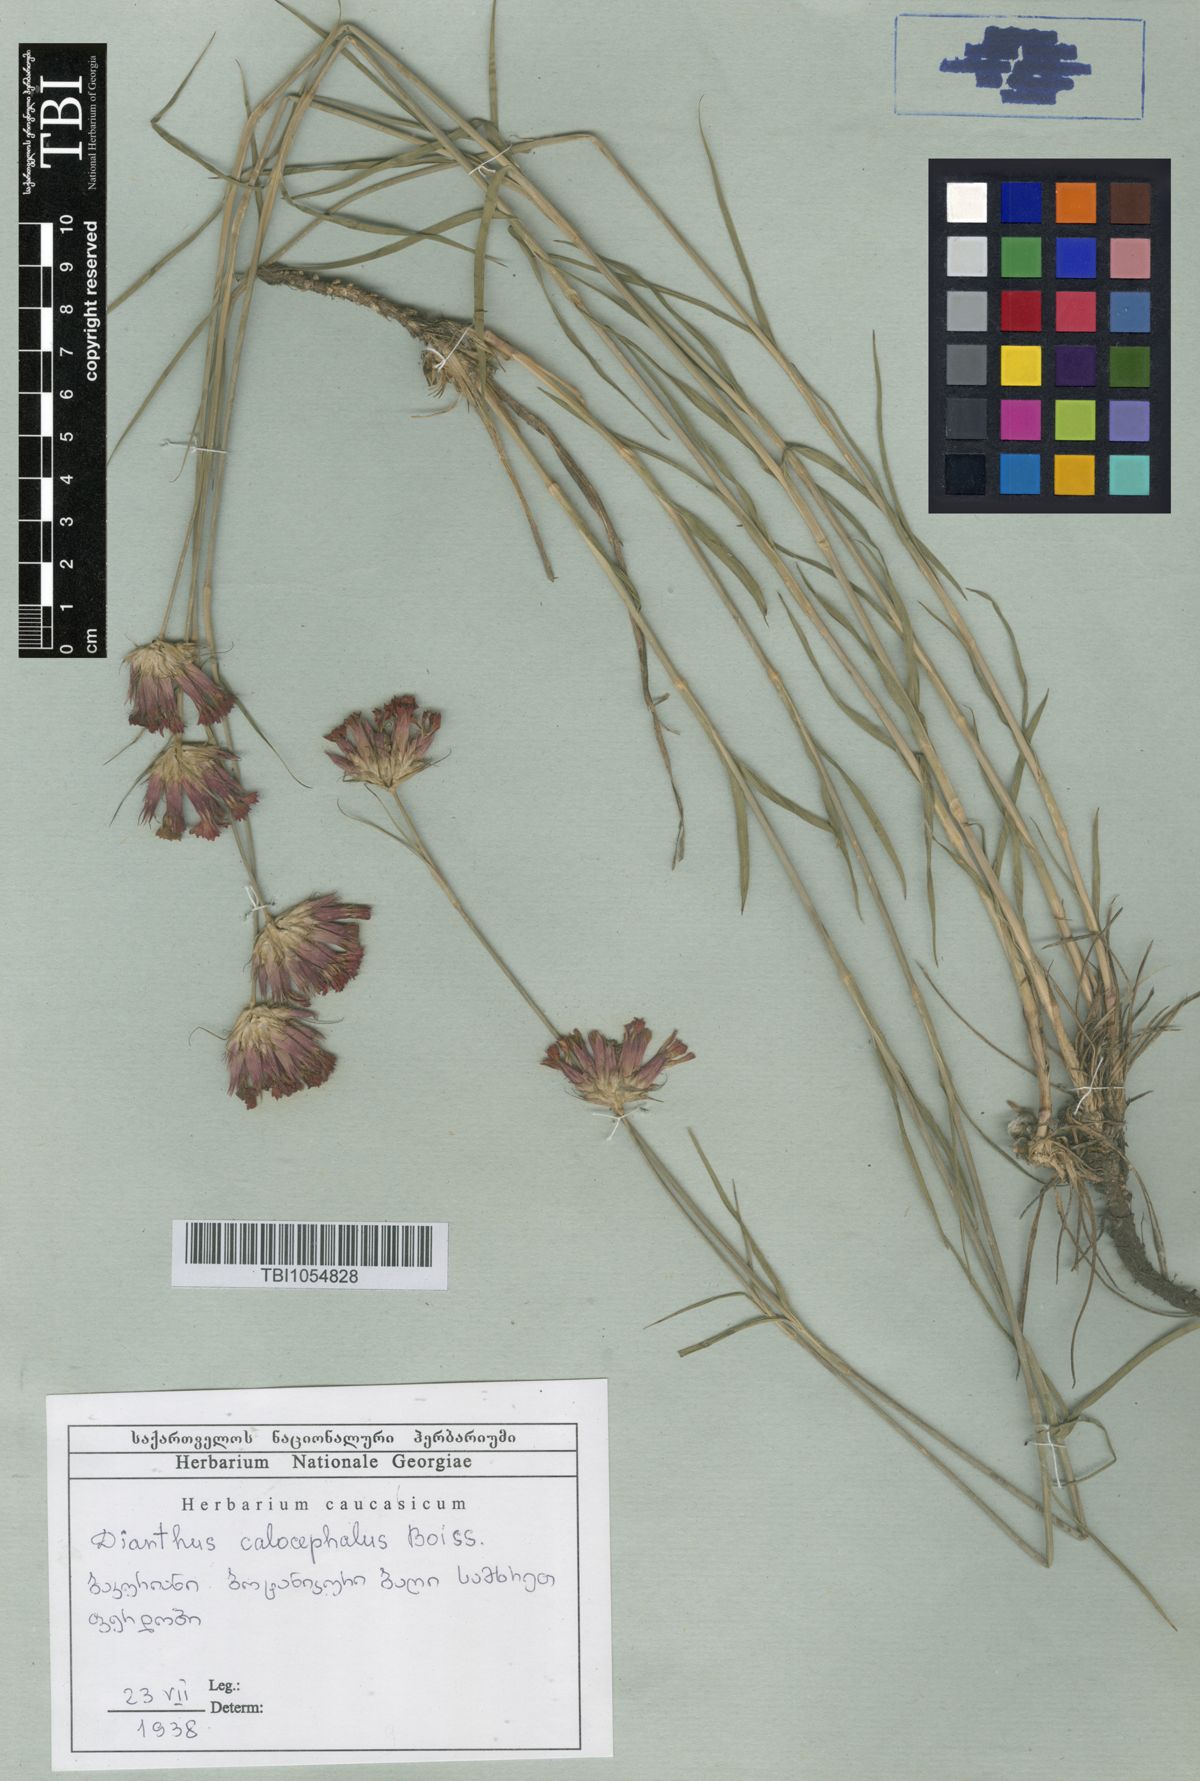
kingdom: Plantae
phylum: Tracheophyta
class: Magnoliopsida
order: Caryophyllales
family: Caryophyllaceae
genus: Dianthus
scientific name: Dianthus cruentus
